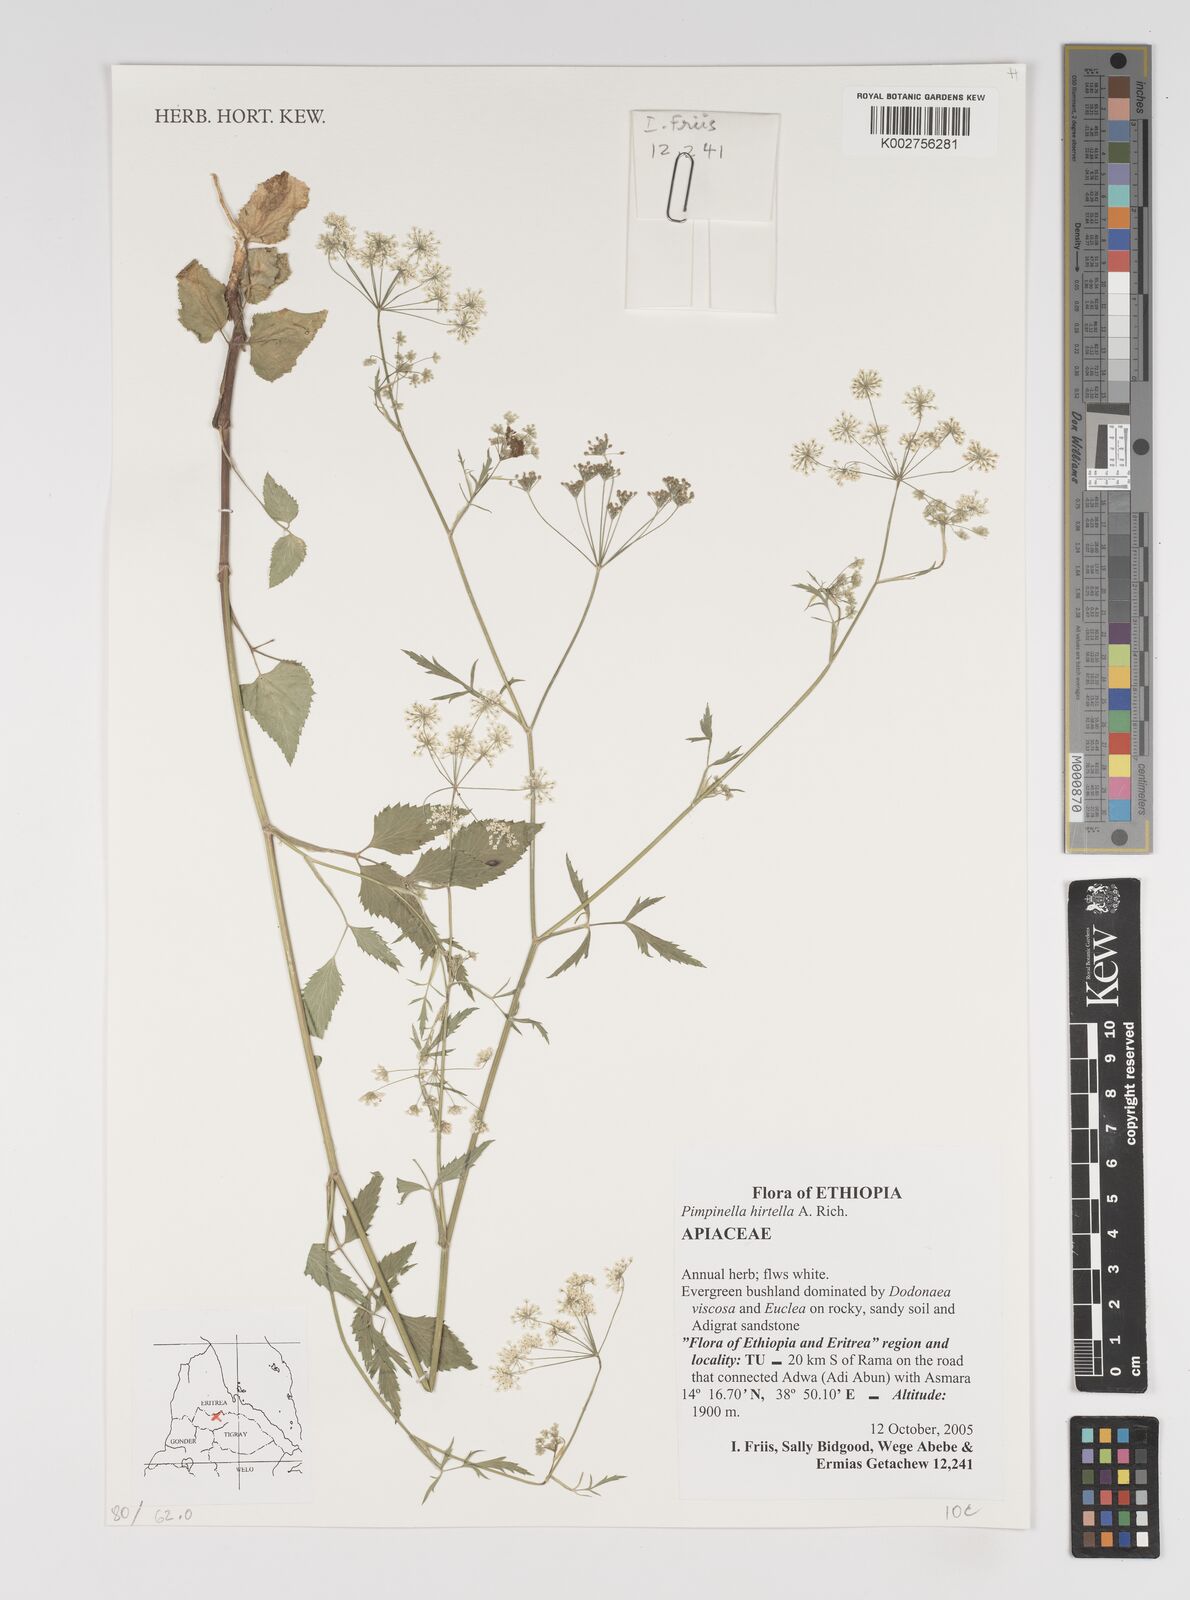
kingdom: Plantae
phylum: Tracheophyta
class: Magnoliopsida
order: Apiales
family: Apiaceae
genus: Pimpinella
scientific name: Pimpinella hirtella
